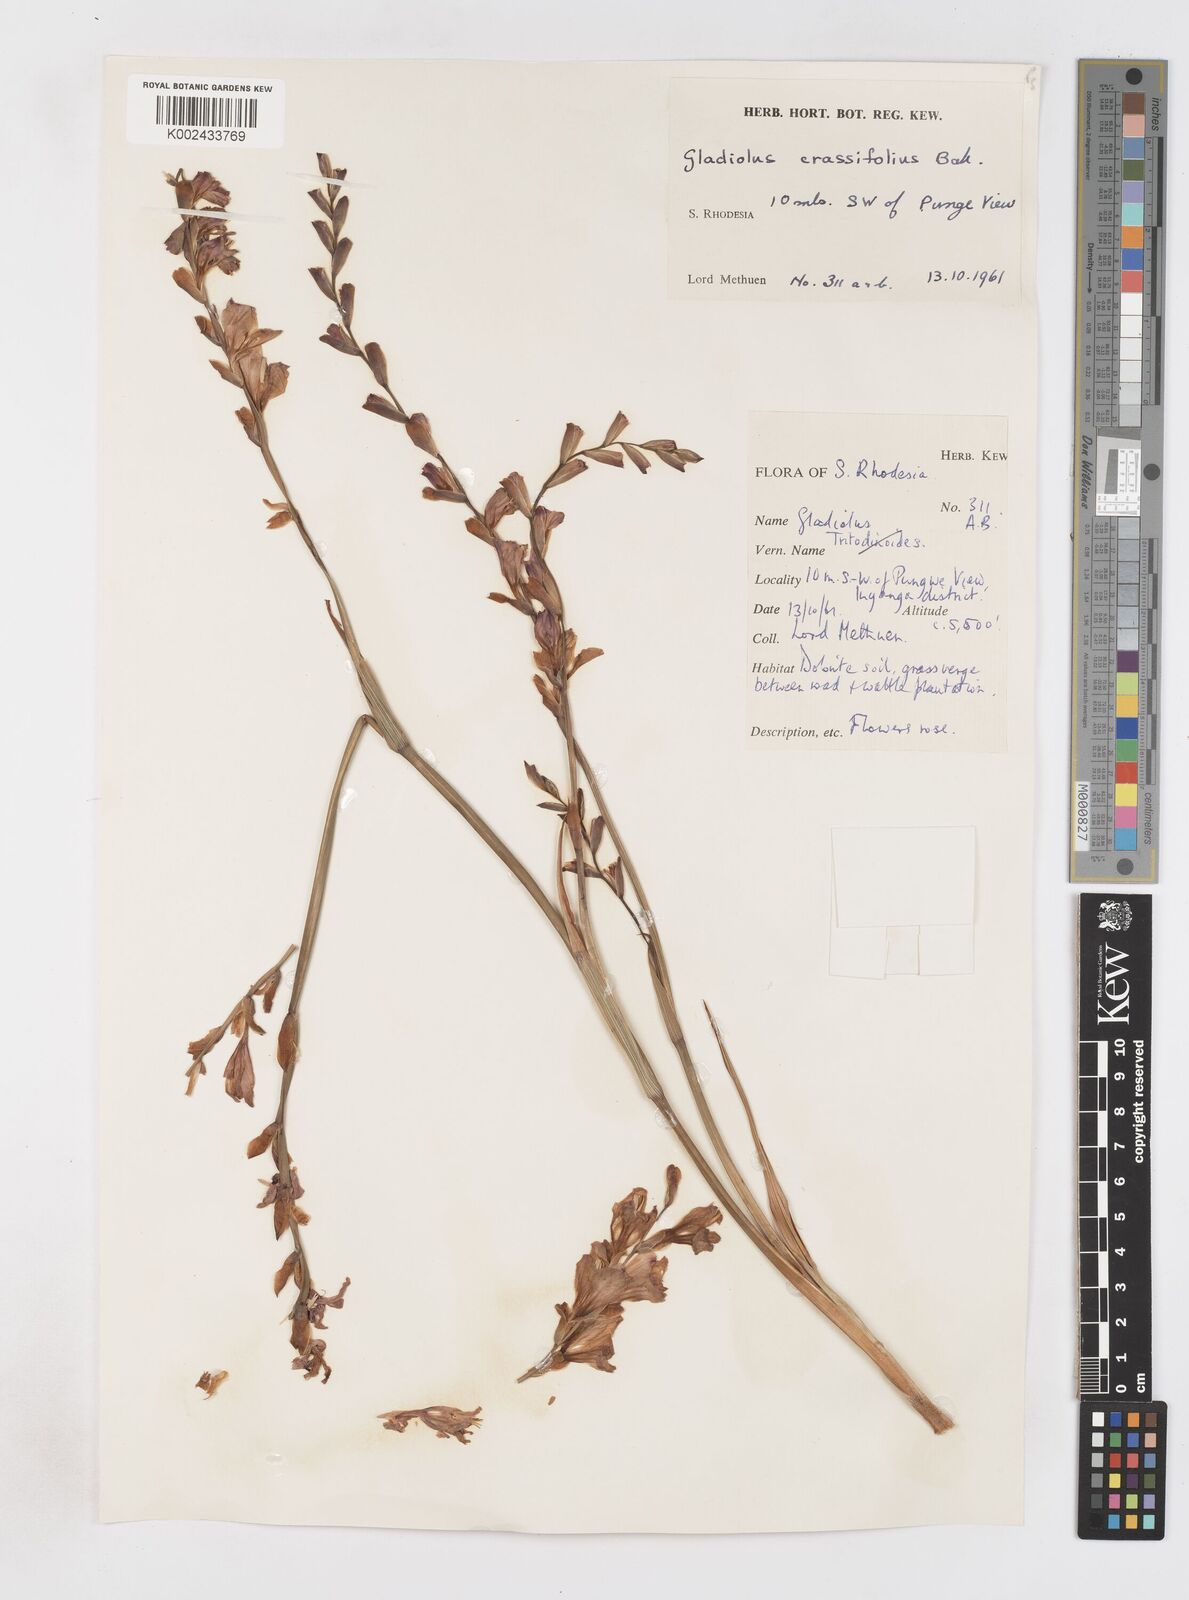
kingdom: Plantae
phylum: Tracheophyta
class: Liliopsida
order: Asparagales
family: Iridaceae
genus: Gladiolus
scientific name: Gladiolus crassifolius
